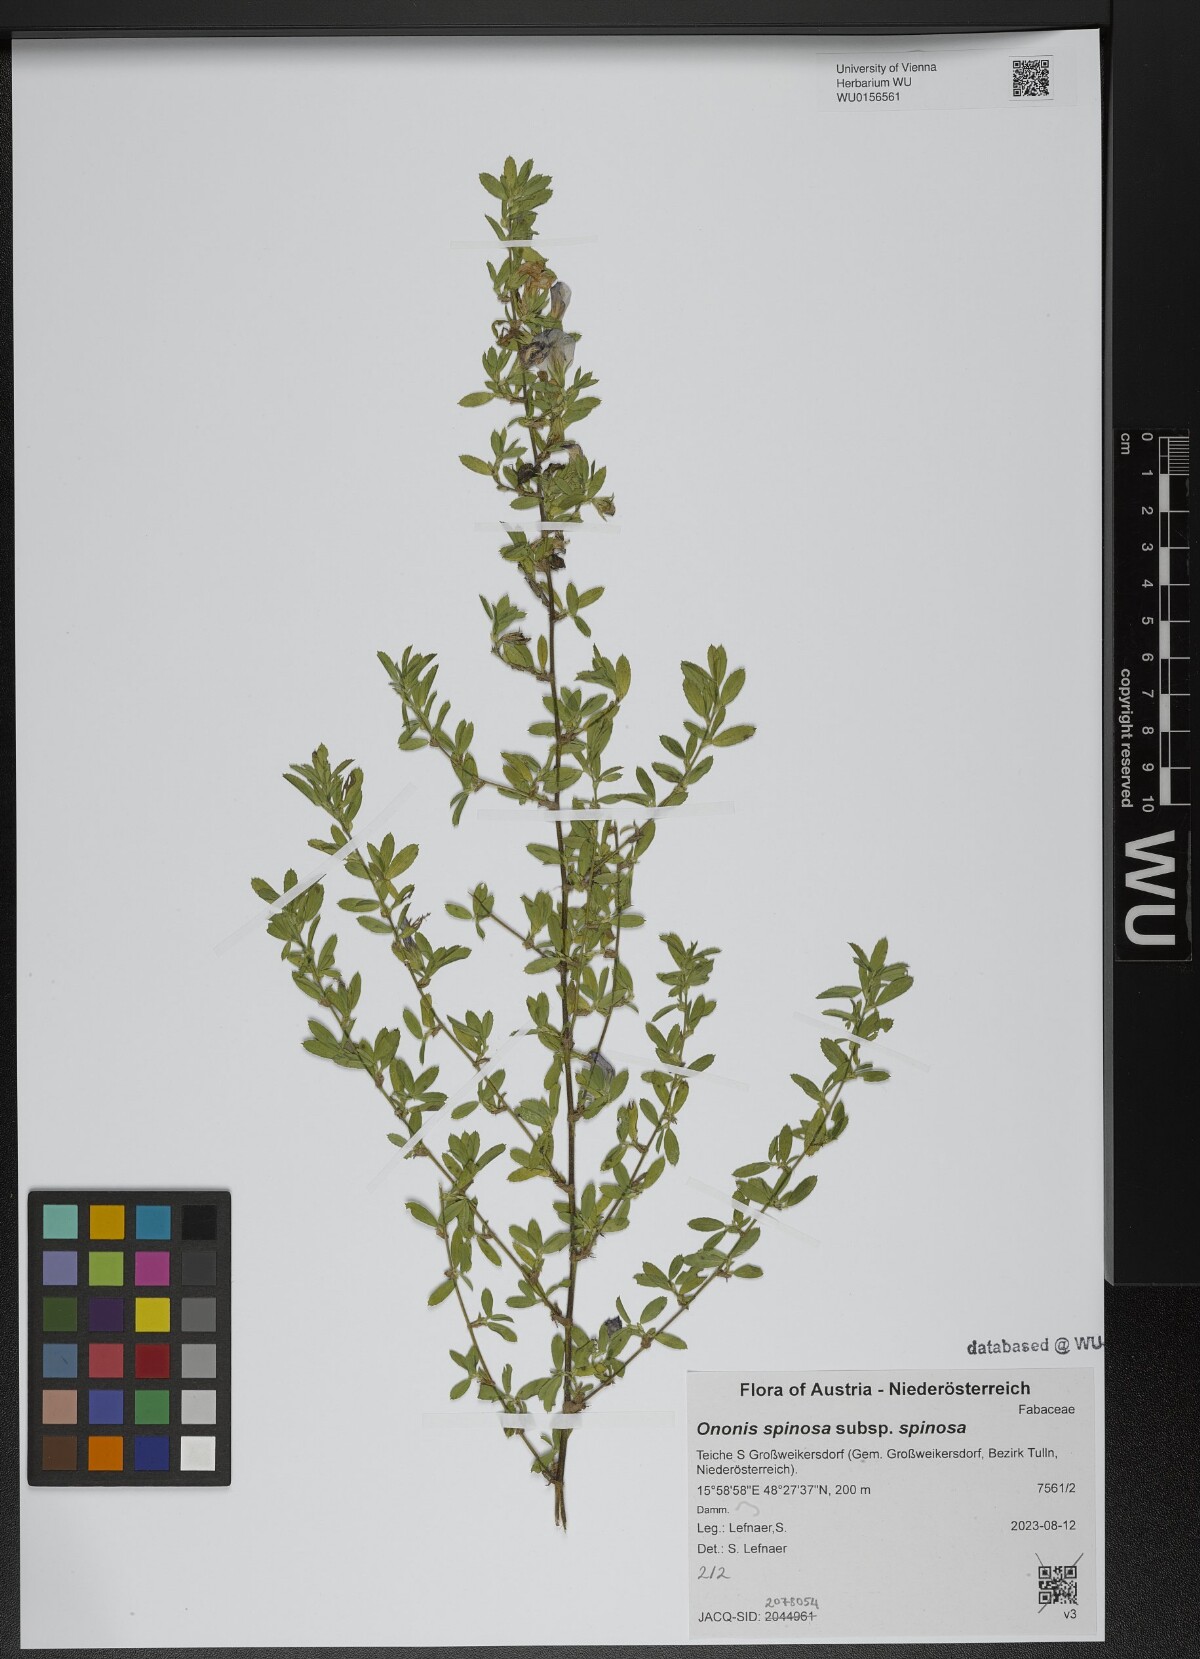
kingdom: Plantae
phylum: Tracheophyta
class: Magnoliopsida
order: Fabales
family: Fabaceae
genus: Ononis
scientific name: Ononis spinosa
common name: Spiny restharrow
